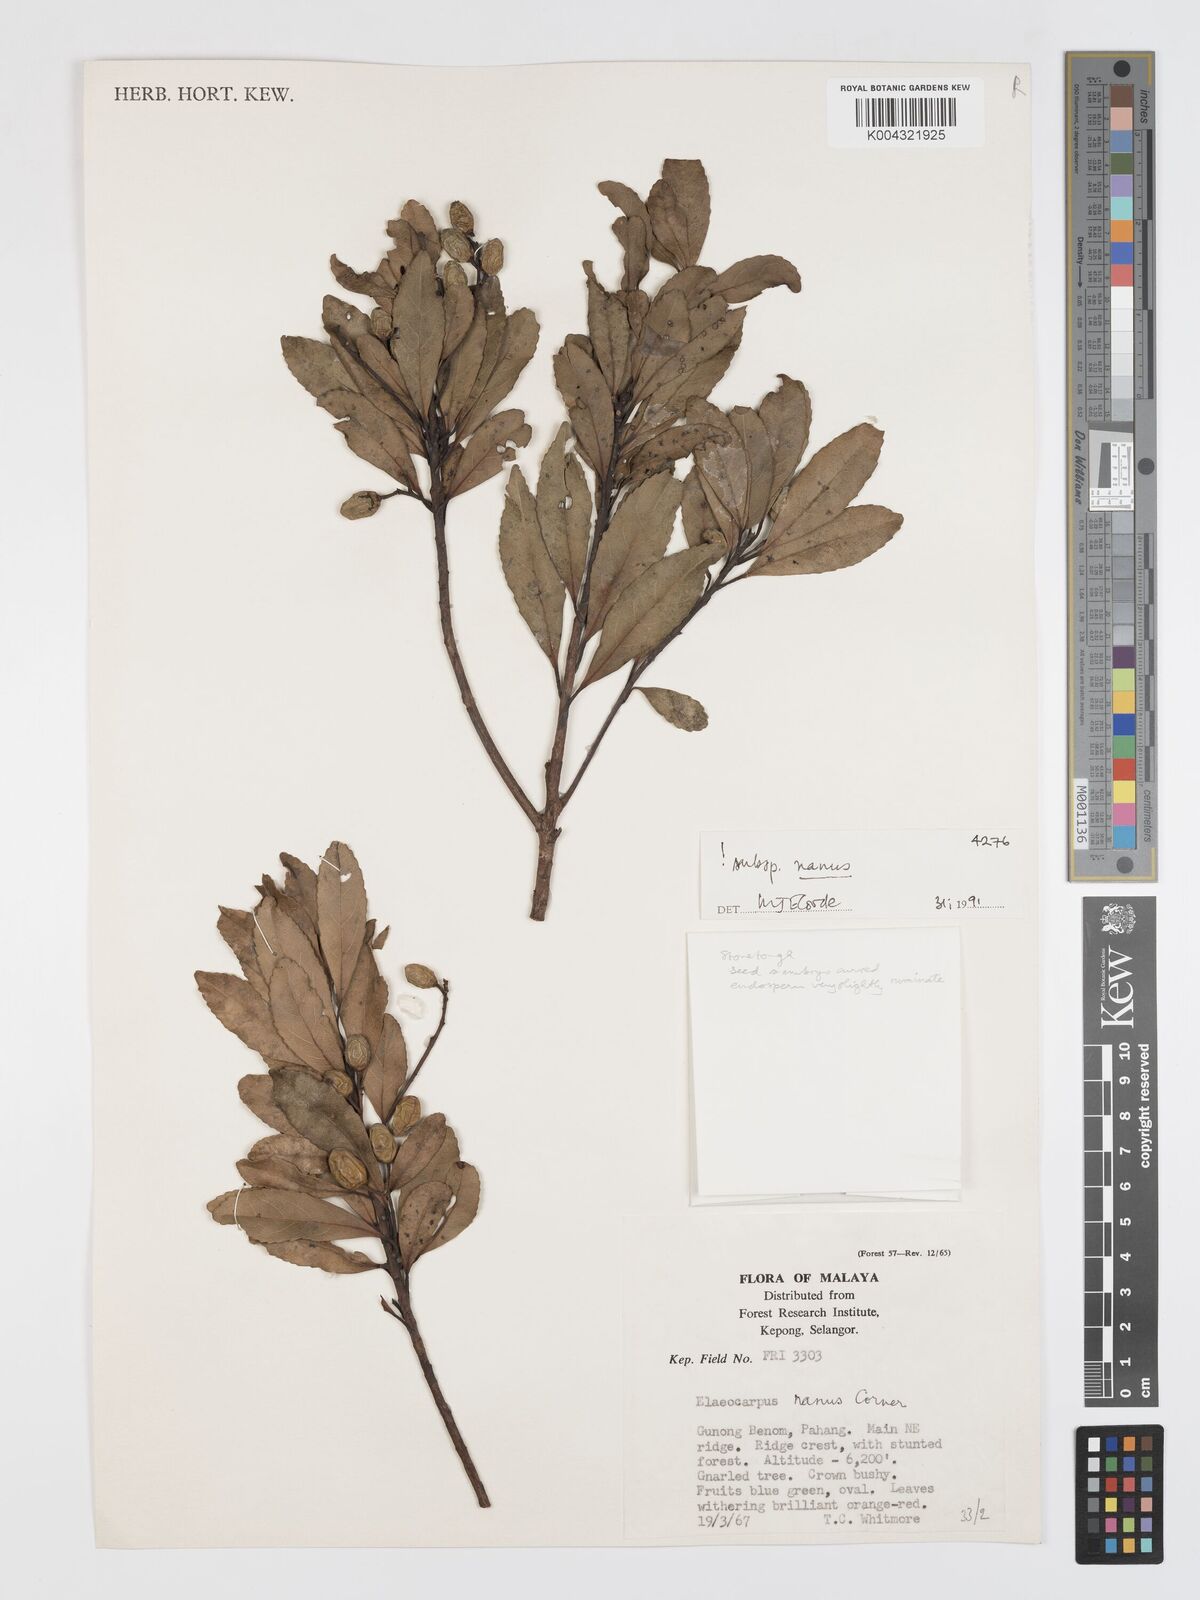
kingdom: Plantae
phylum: Tracheophyta
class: Magnoliopsida
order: Oxalidales
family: Elaeocarpaceae
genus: Elaeocarpus
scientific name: Elaeocarpus nanus
